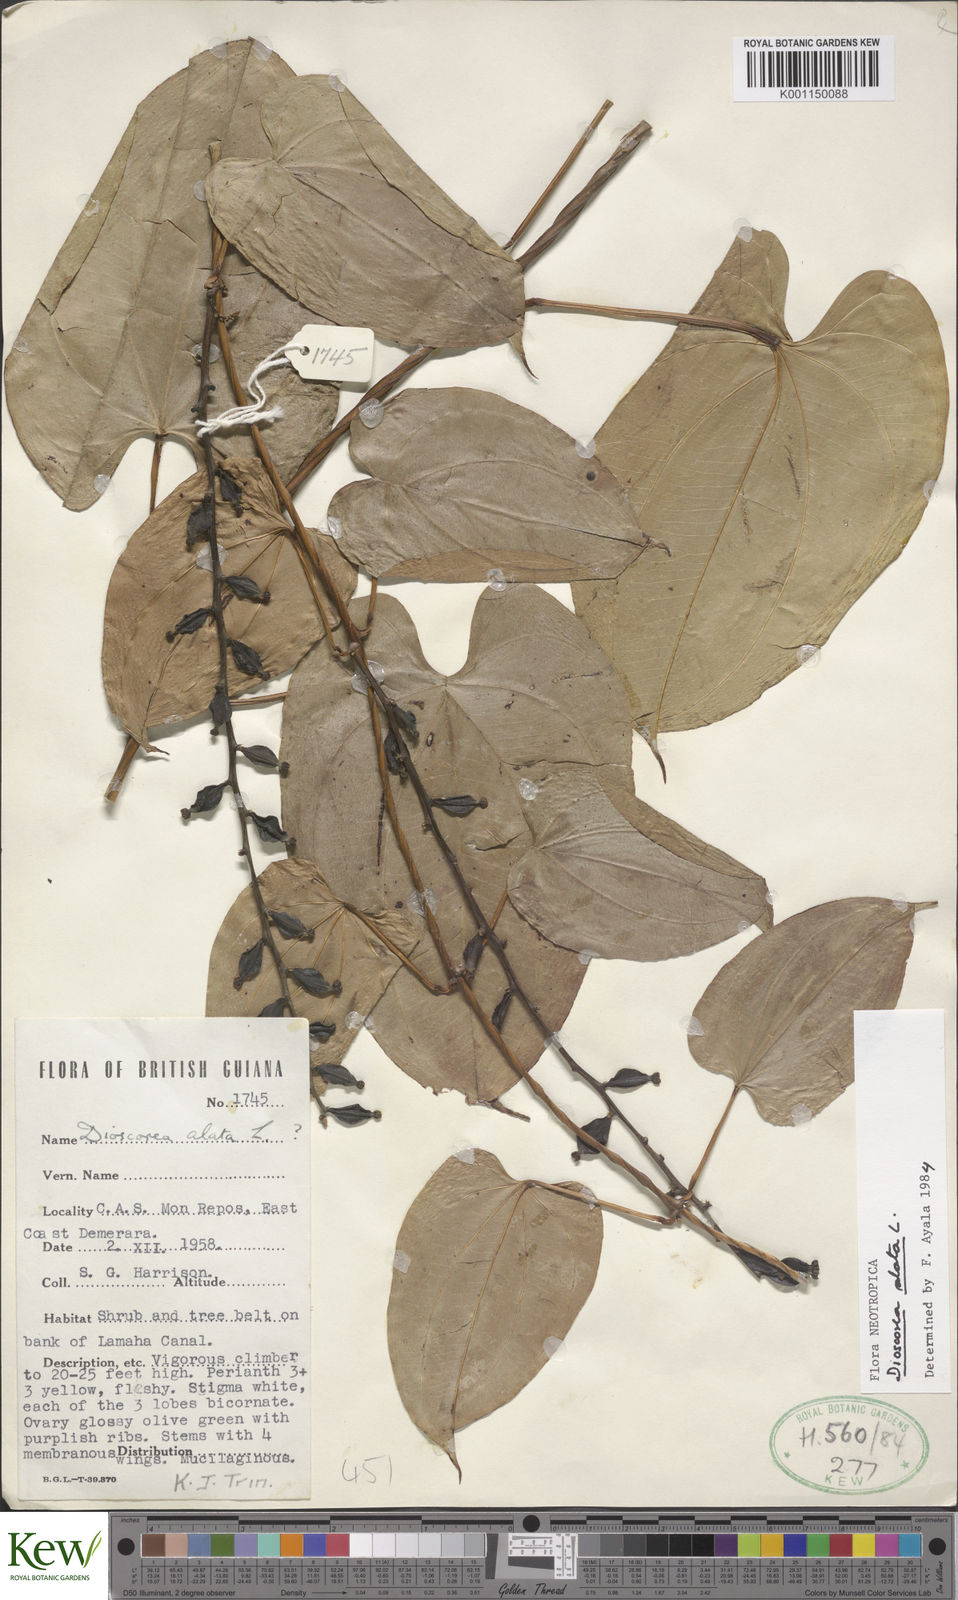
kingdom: Plantae
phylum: Tracheophyta
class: Liliopsida
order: Dioscoreales
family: Dioscoreaceae
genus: Dioscorea
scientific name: Dioscorea alata
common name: Water yam
